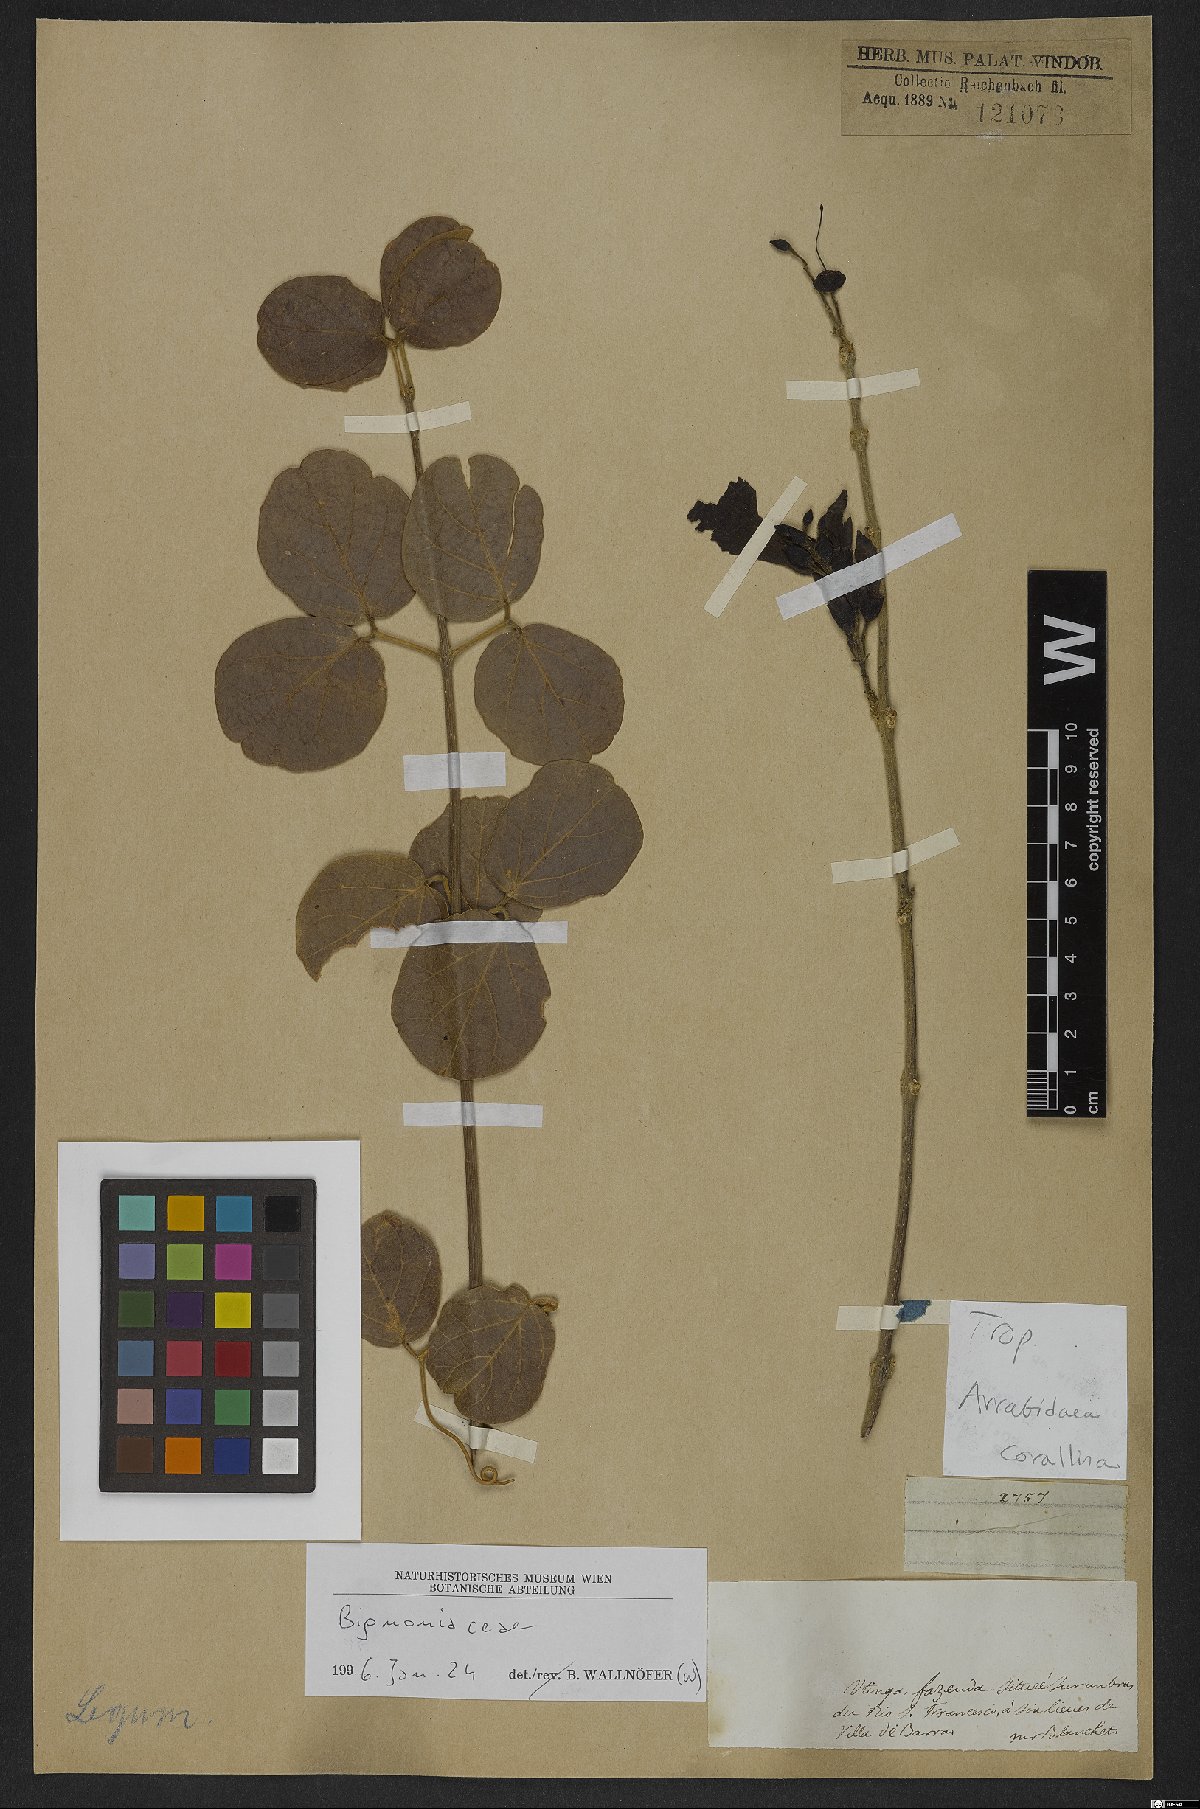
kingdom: Plantae
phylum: Tracheophyta
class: Magnoliopsida
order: Lamiales
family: Bignoniaceae
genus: Tanaecium
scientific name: Tanaecium dichotomum
